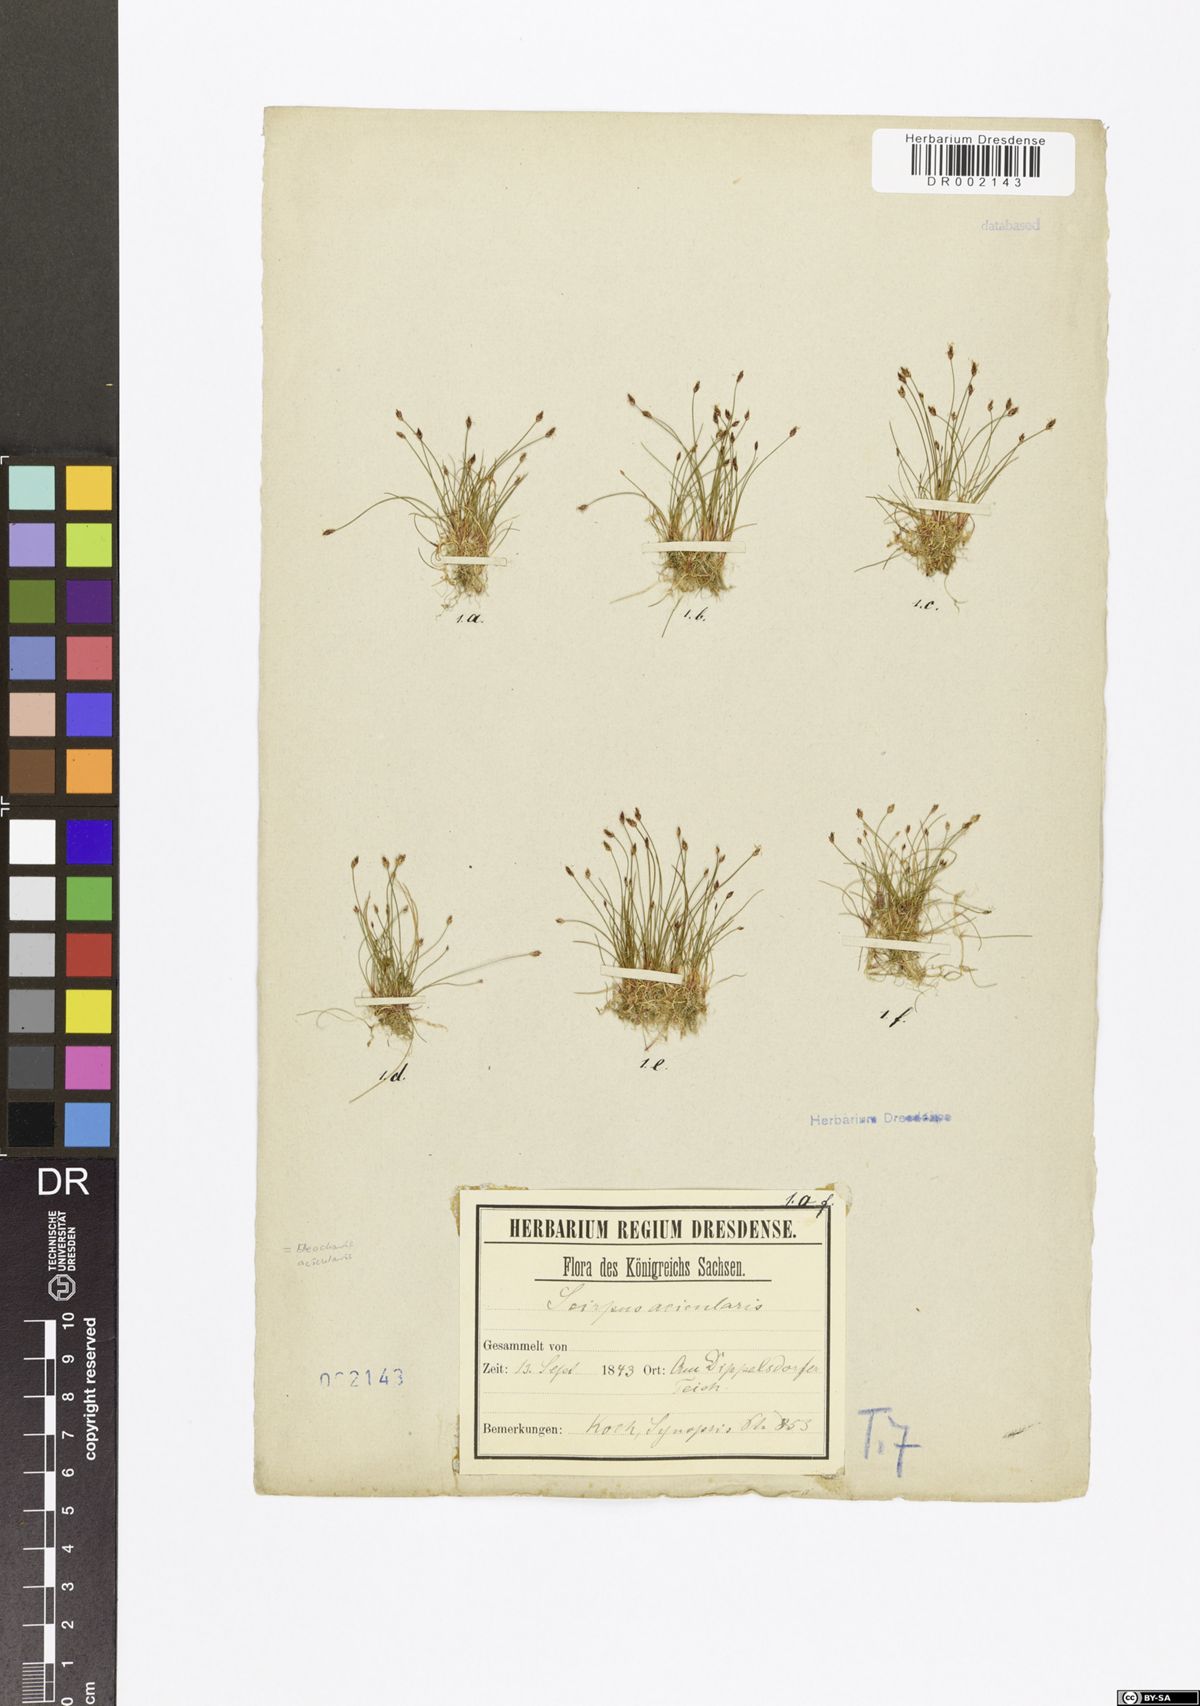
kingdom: Plantae
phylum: Tracheophyta
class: Liliopsida
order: Poales
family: Cyperaceae
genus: Eleocharis
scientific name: Eleocharis acicularis
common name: Needle spike-rush
